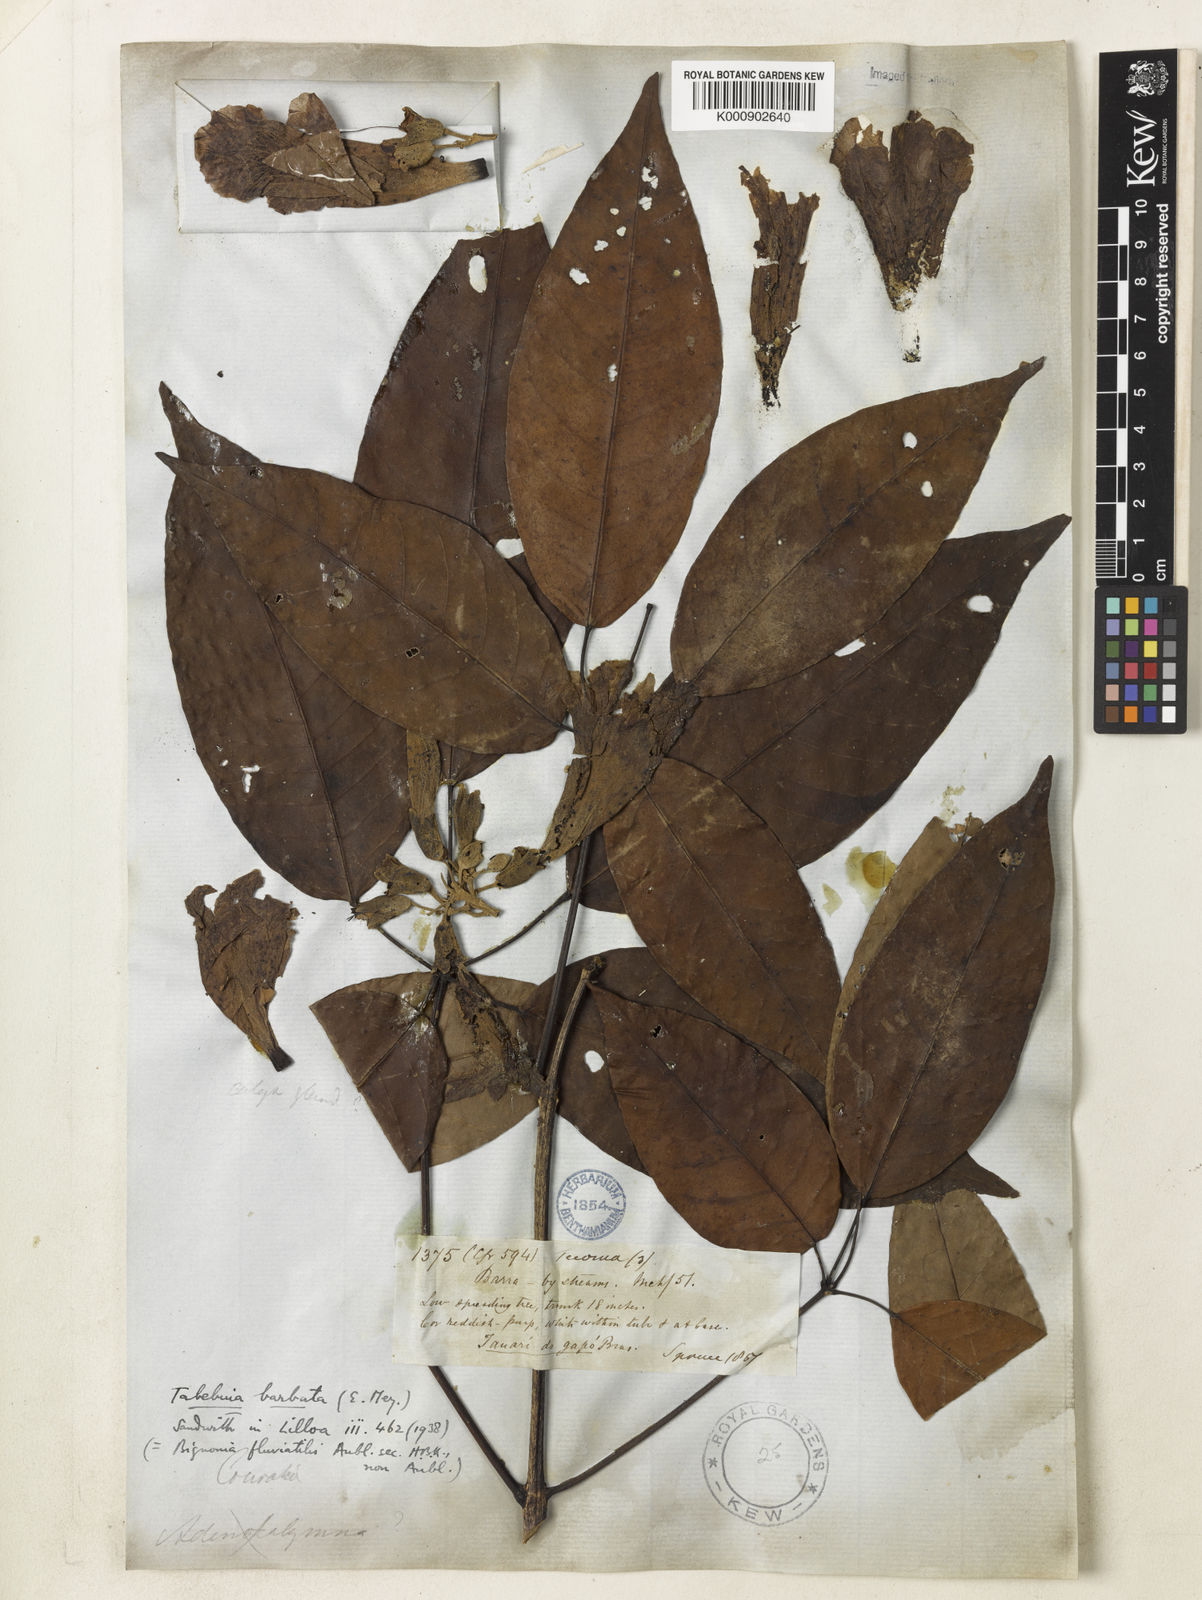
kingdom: Plantae
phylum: Tracheophyta
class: Magnoliopsida
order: Lamiales
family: Bignoniaceae
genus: Handroanthus
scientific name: Handroanthus barbatus
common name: Trumpet trees
